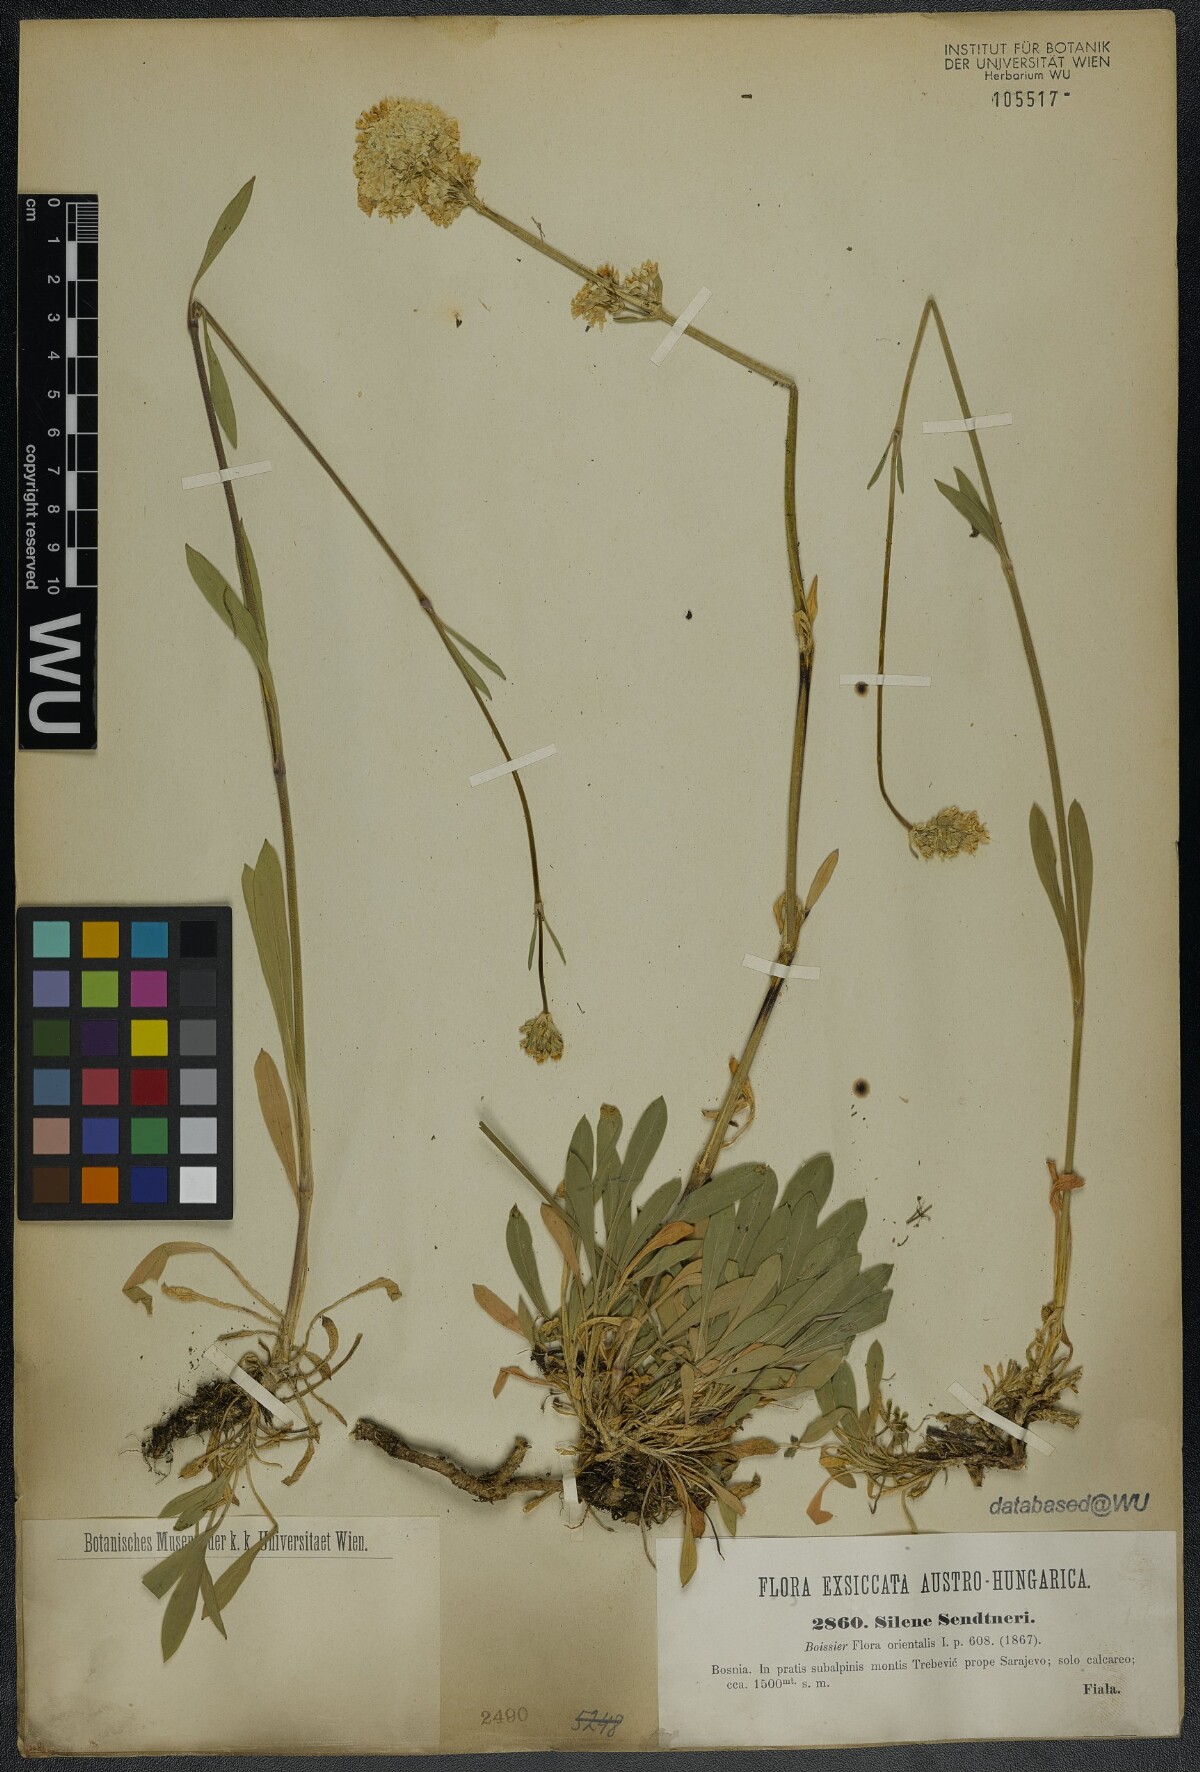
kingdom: Plantae
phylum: Tracheophyta
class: Magnoliopsida
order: Caryophyllales
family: Caryophyllaceae
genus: Silene
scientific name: Silene sendtneri
